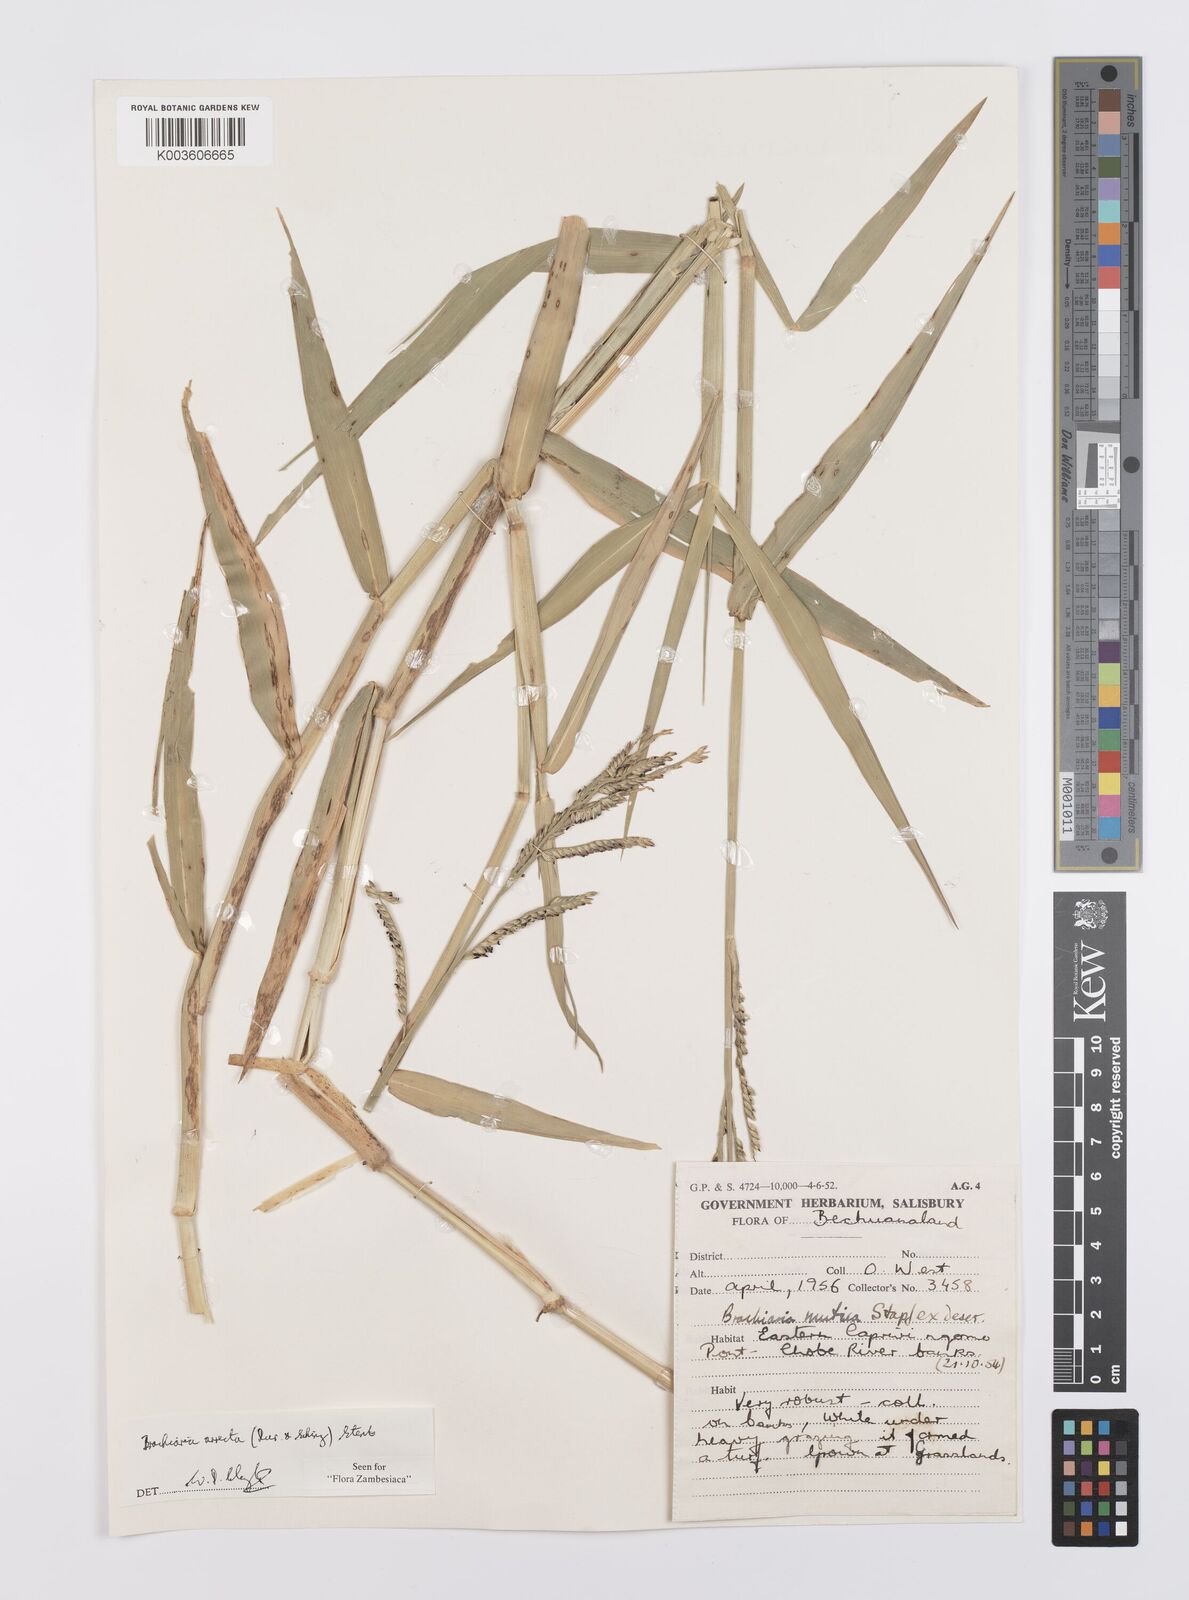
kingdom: Plantae
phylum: Tracheophyta
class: Liliopsida
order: Poales
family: Poaceae
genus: Urochloa
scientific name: Urochloa arrecta
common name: African signalgrass
